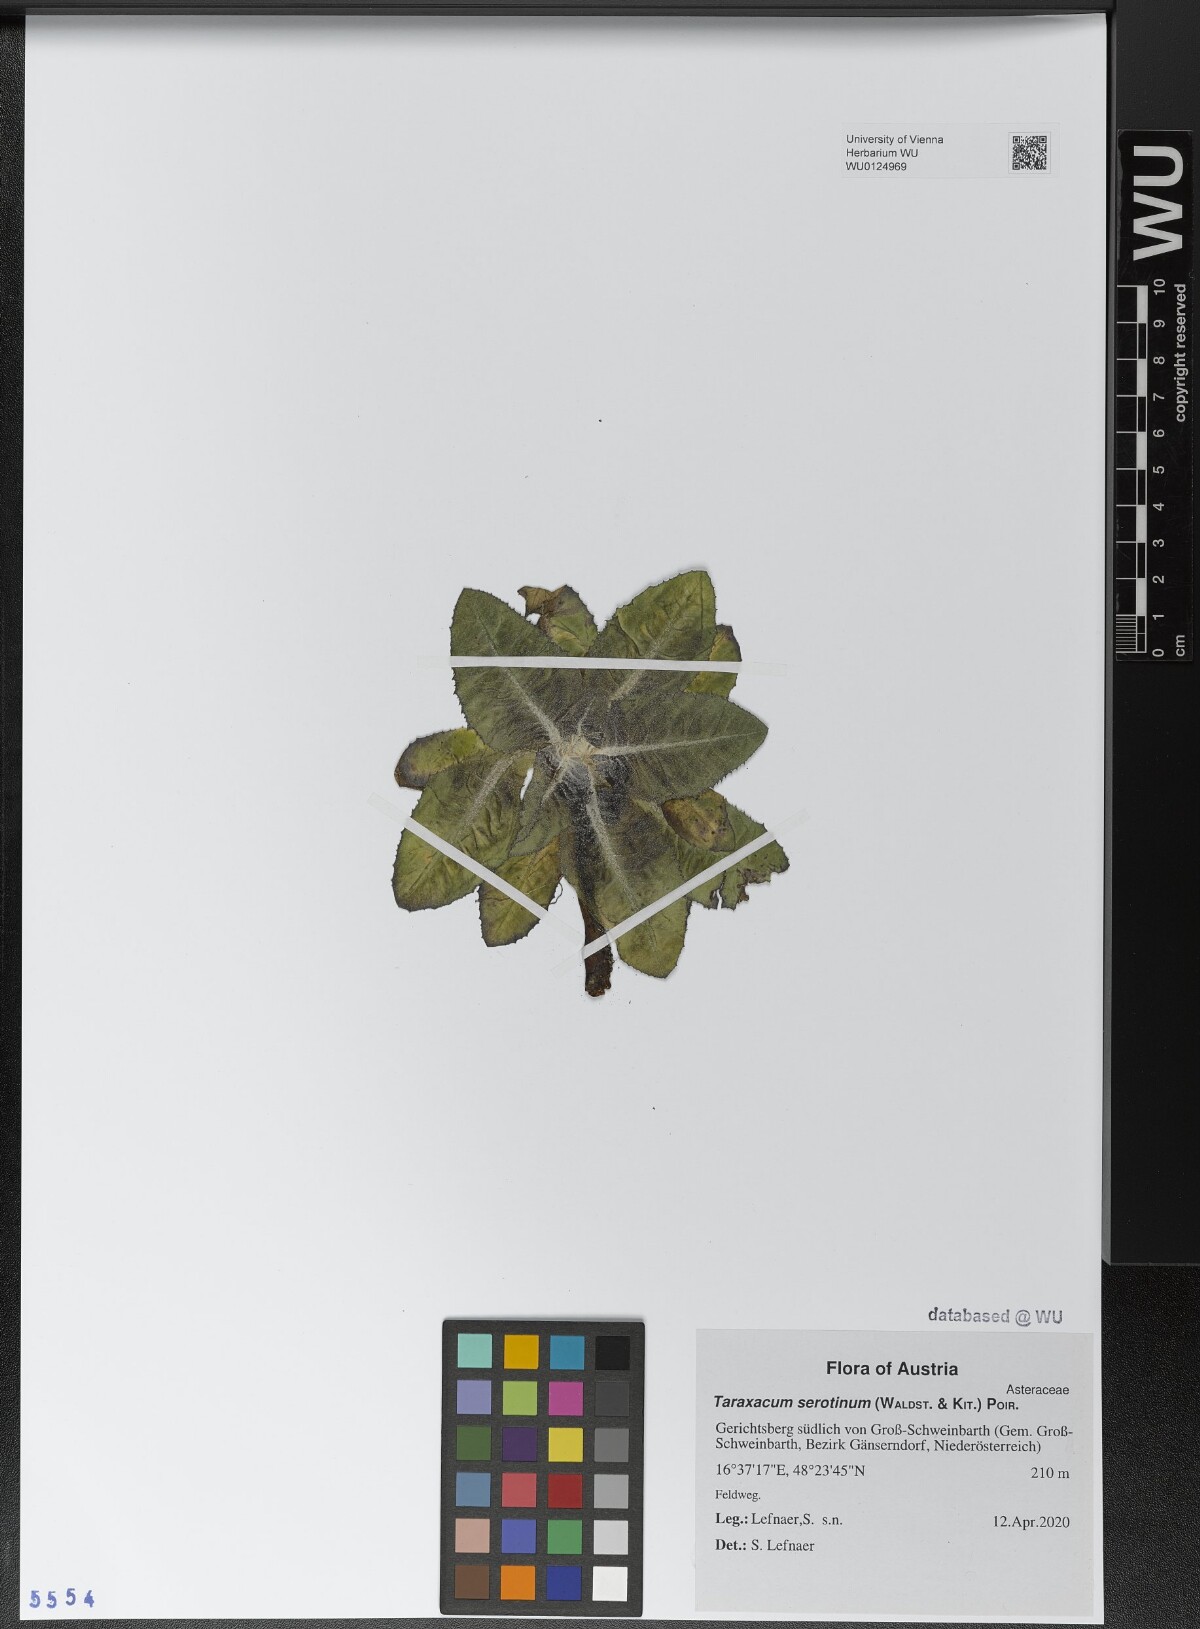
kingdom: Plantae
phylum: Tracheophyta
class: Magnoliopsida
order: Asterales
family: Asteraceae
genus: Taraxacum
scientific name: Taraxacum serotinum
